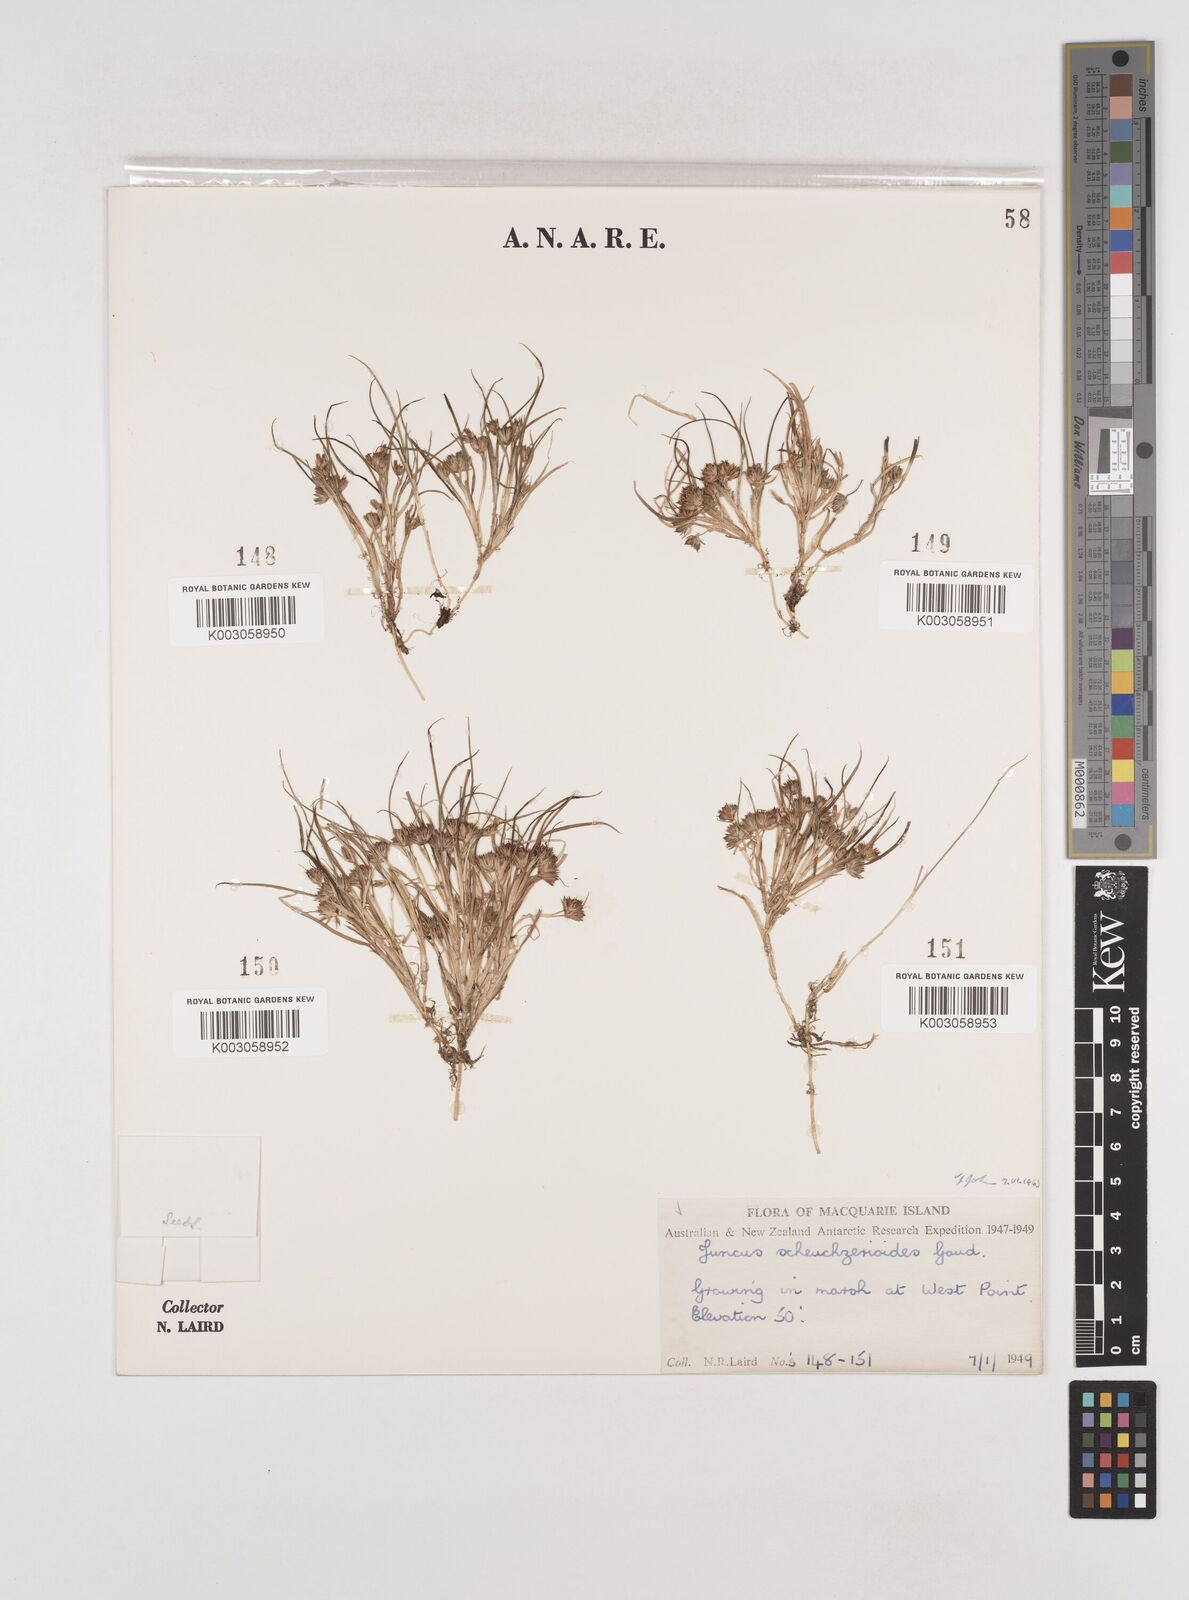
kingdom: Plantae
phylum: Tracheophyta
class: Liliopsida
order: Poales
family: Juncaceae
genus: Juncus
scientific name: Juncus scheuchzerioides
